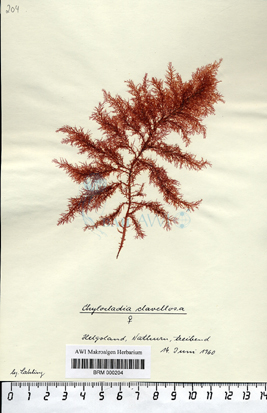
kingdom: Plantae
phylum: Rhodophyta
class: Florideophyceae
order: Rhodymeniales
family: Lomentariaceae
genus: Lomentaria
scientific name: Lomentaria clavellosa
